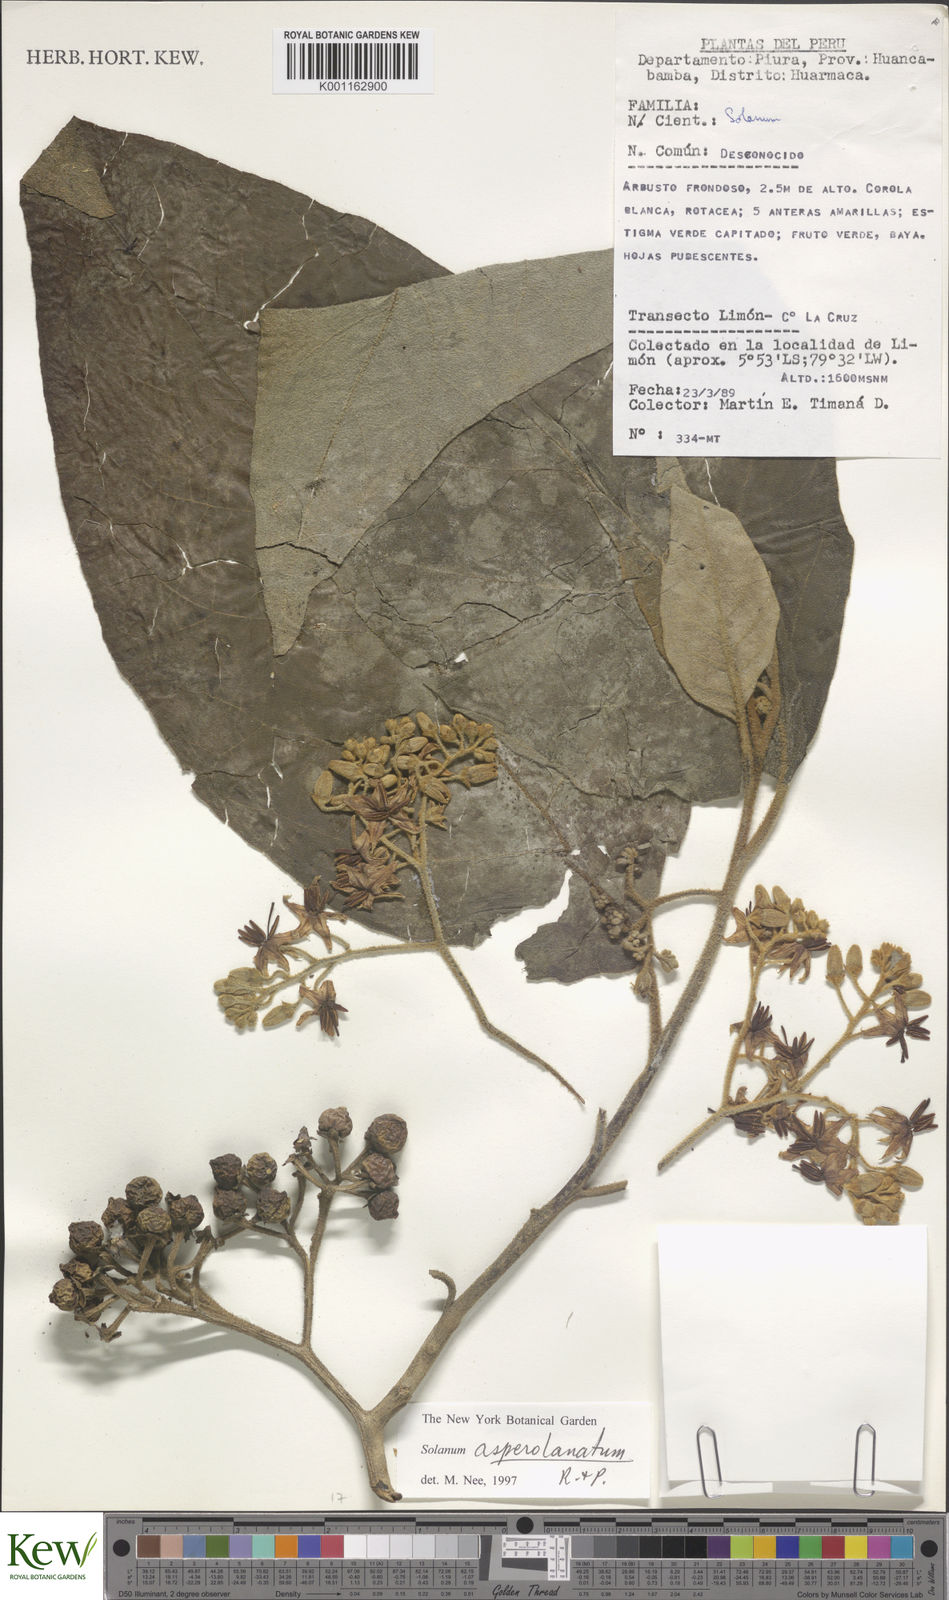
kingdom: Plantae
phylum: Tracheophyta
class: Magnoliopsida
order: Solanales
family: Solanaceae
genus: Solanum
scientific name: Solanum asperolanatum
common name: Devil's-fig
